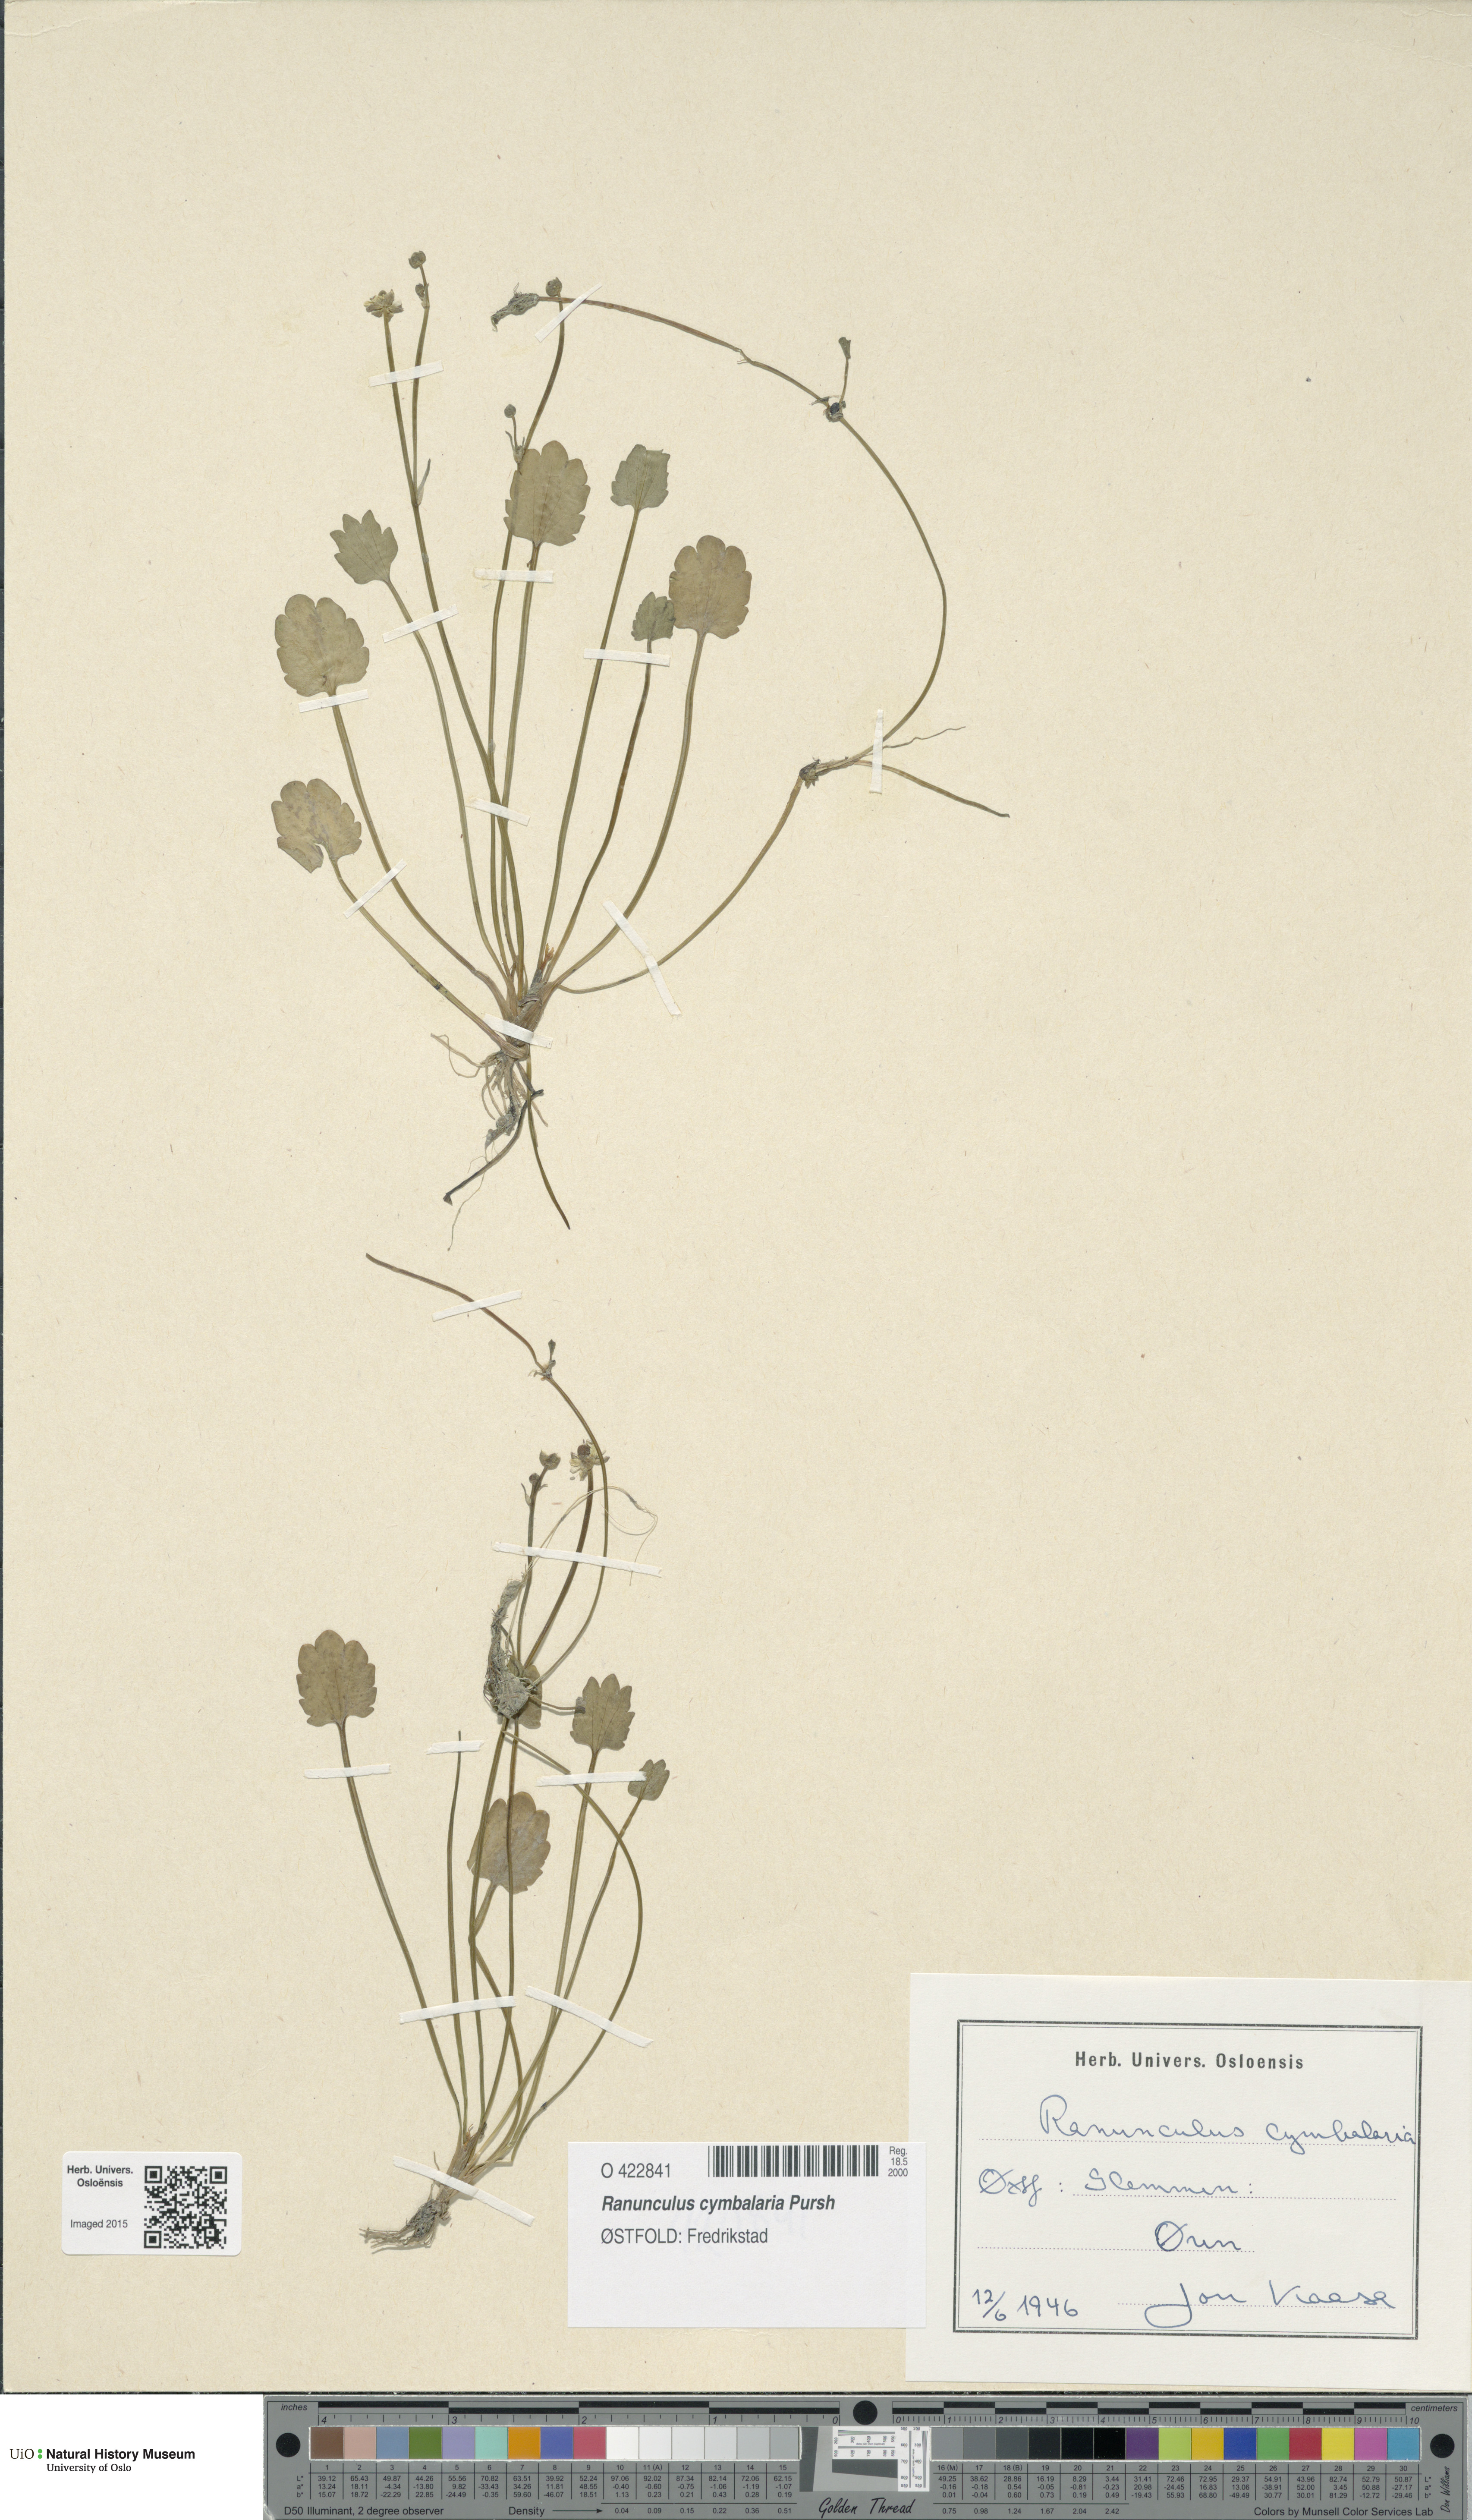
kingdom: Plantae
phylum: Tracheophyta
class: Magnoliopsida
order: Ranunculales
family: Ranunculaceae
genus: Halerpestes
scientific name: Halerpestes cymbalaria
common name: Seaside crowfoot
